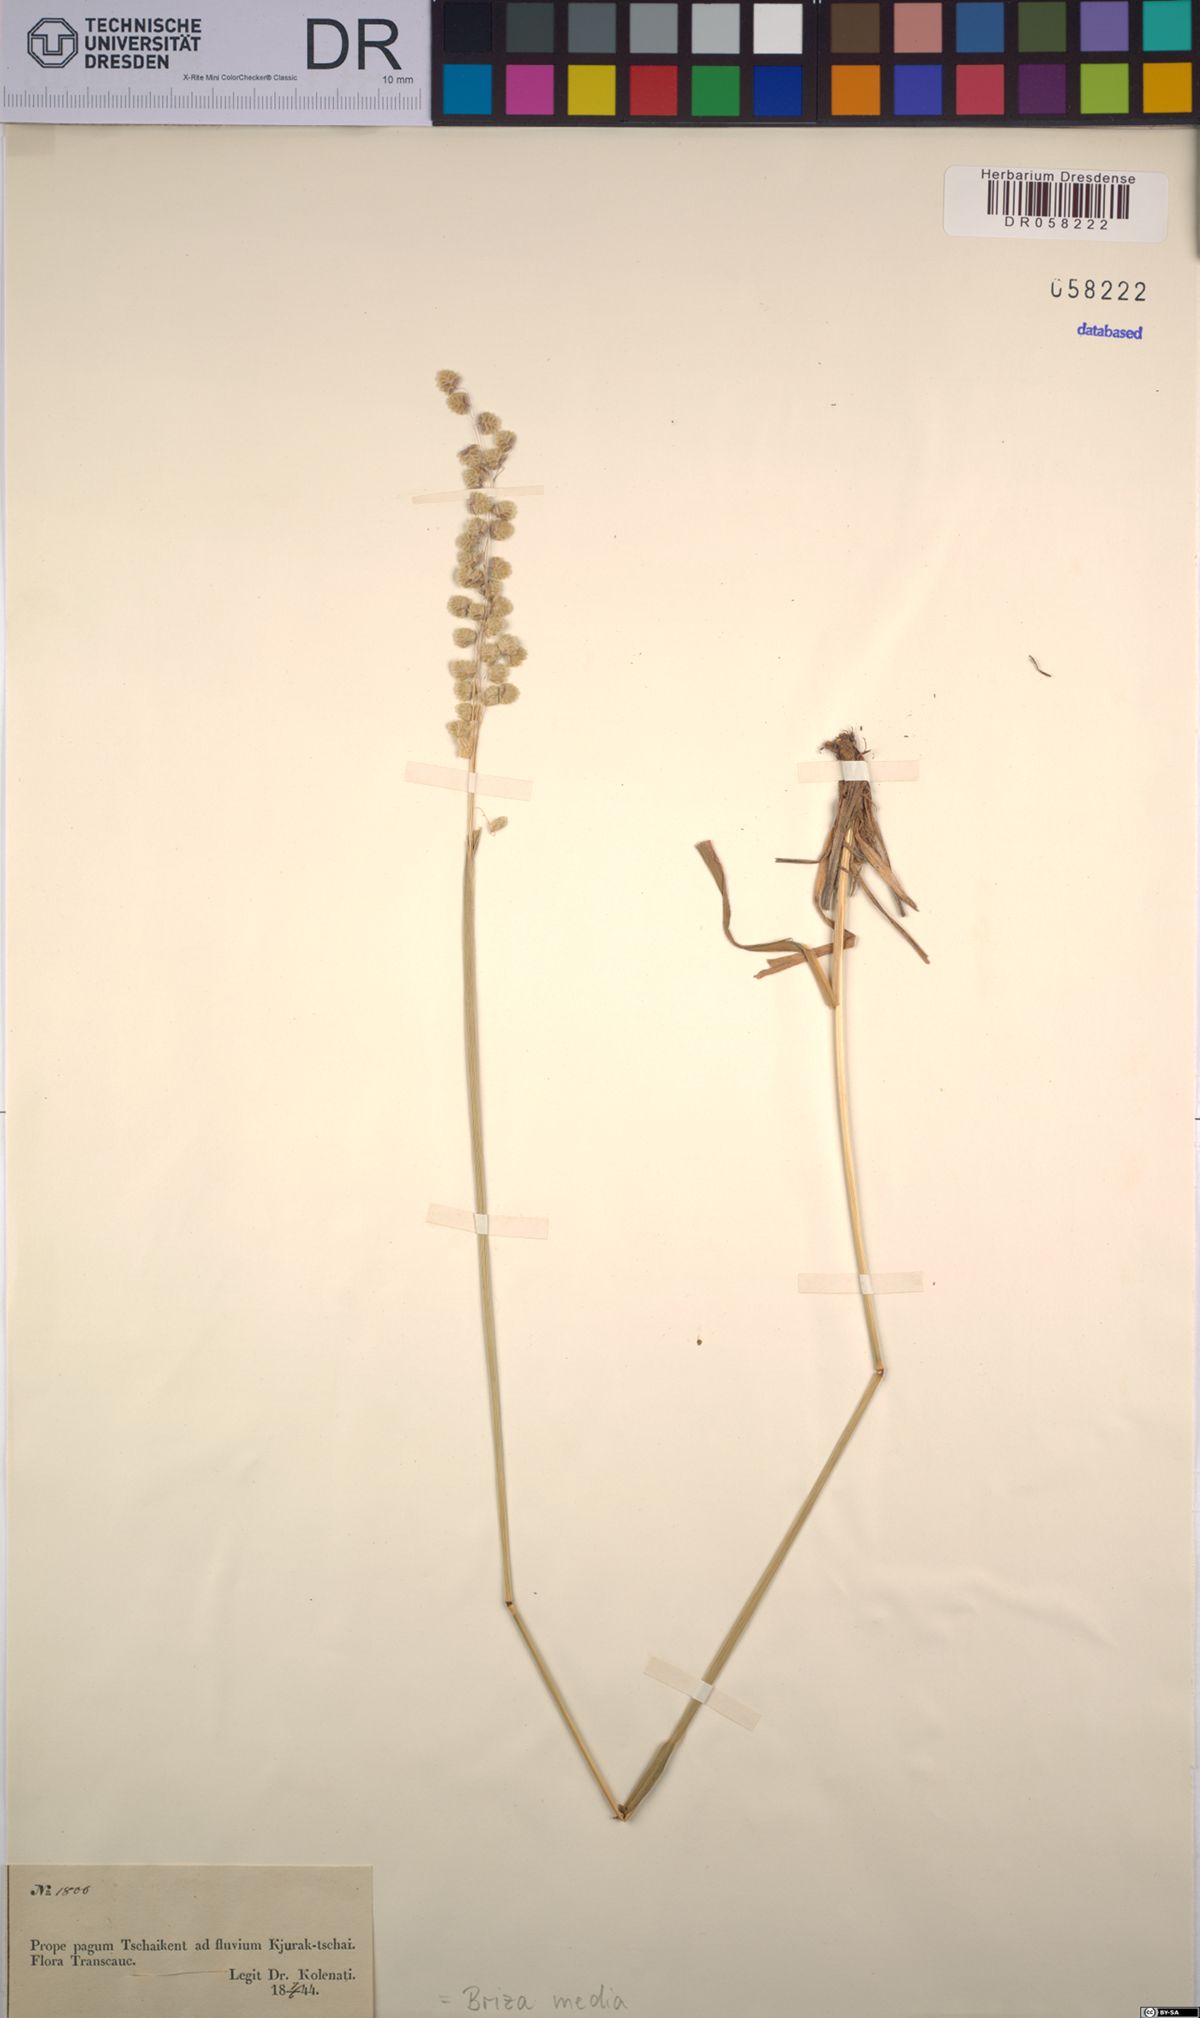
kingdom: Plantae
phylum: Tracheophyta
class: Liliopsida
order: Poales
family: Poaceae
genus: Briza
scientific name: Briza media
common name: Quaking grass
